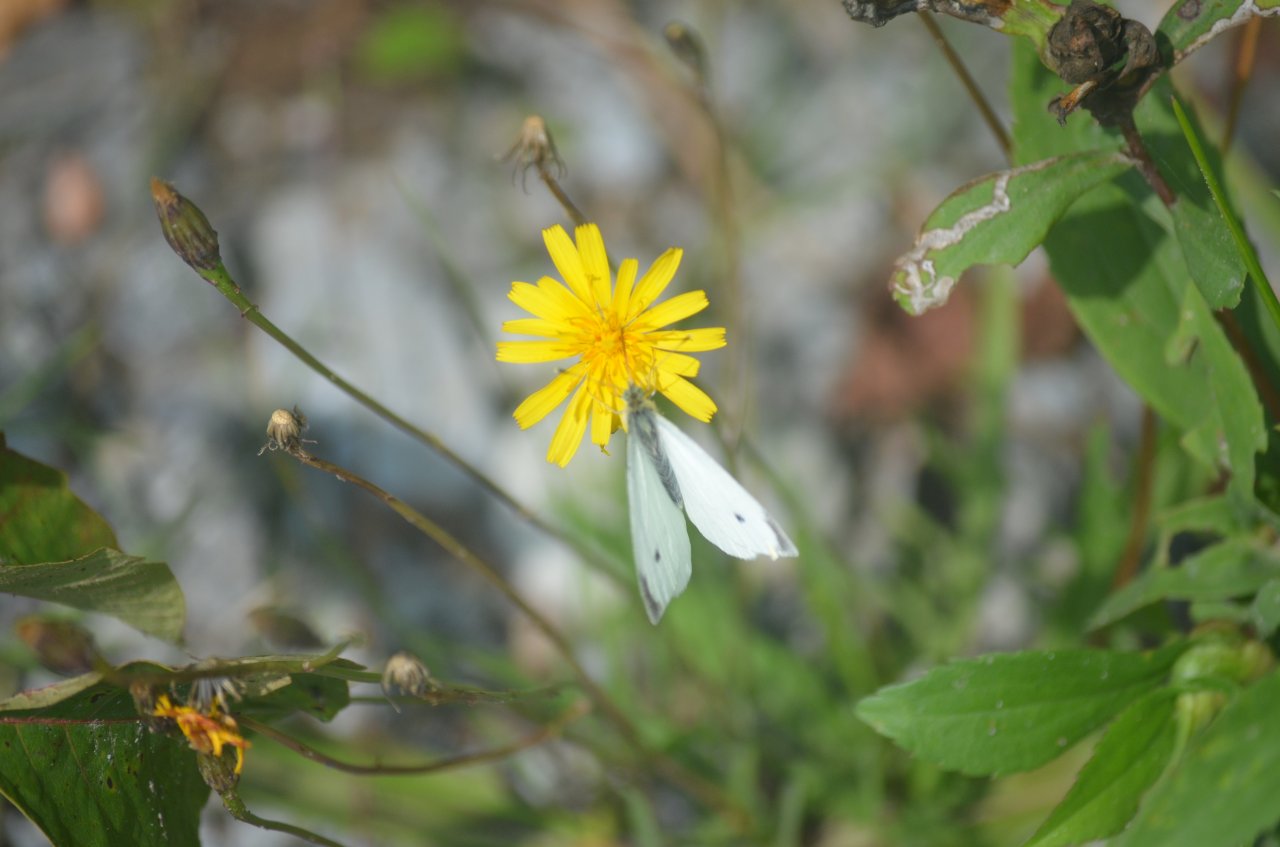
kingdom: Animalia
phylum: Arthropoda
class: Insecta
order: Lepidoptera
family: Pieridae
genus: Pieris
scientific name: Pieris rapae
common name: Cabbage White
